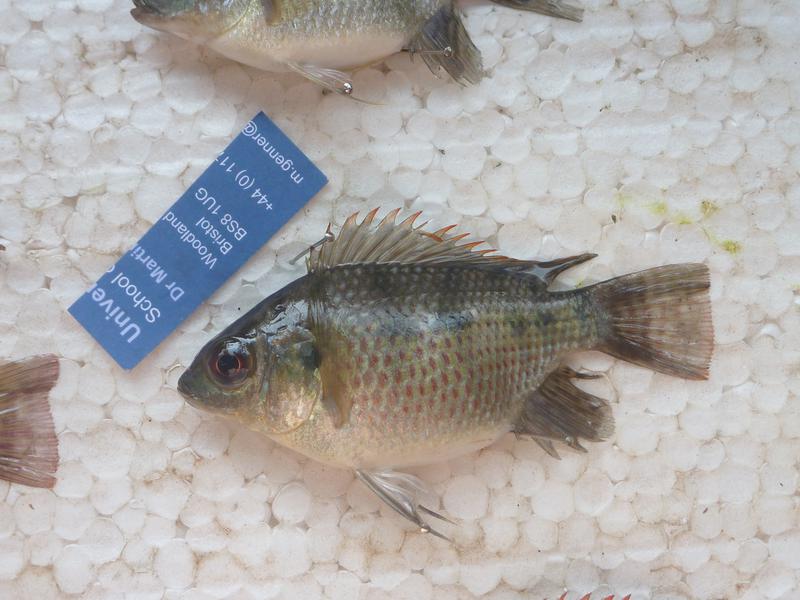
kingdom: Animalia
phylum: Chordata
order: Perciformes
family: Cichlidae
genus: Oreochromis
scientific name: Oreochromis upembae
